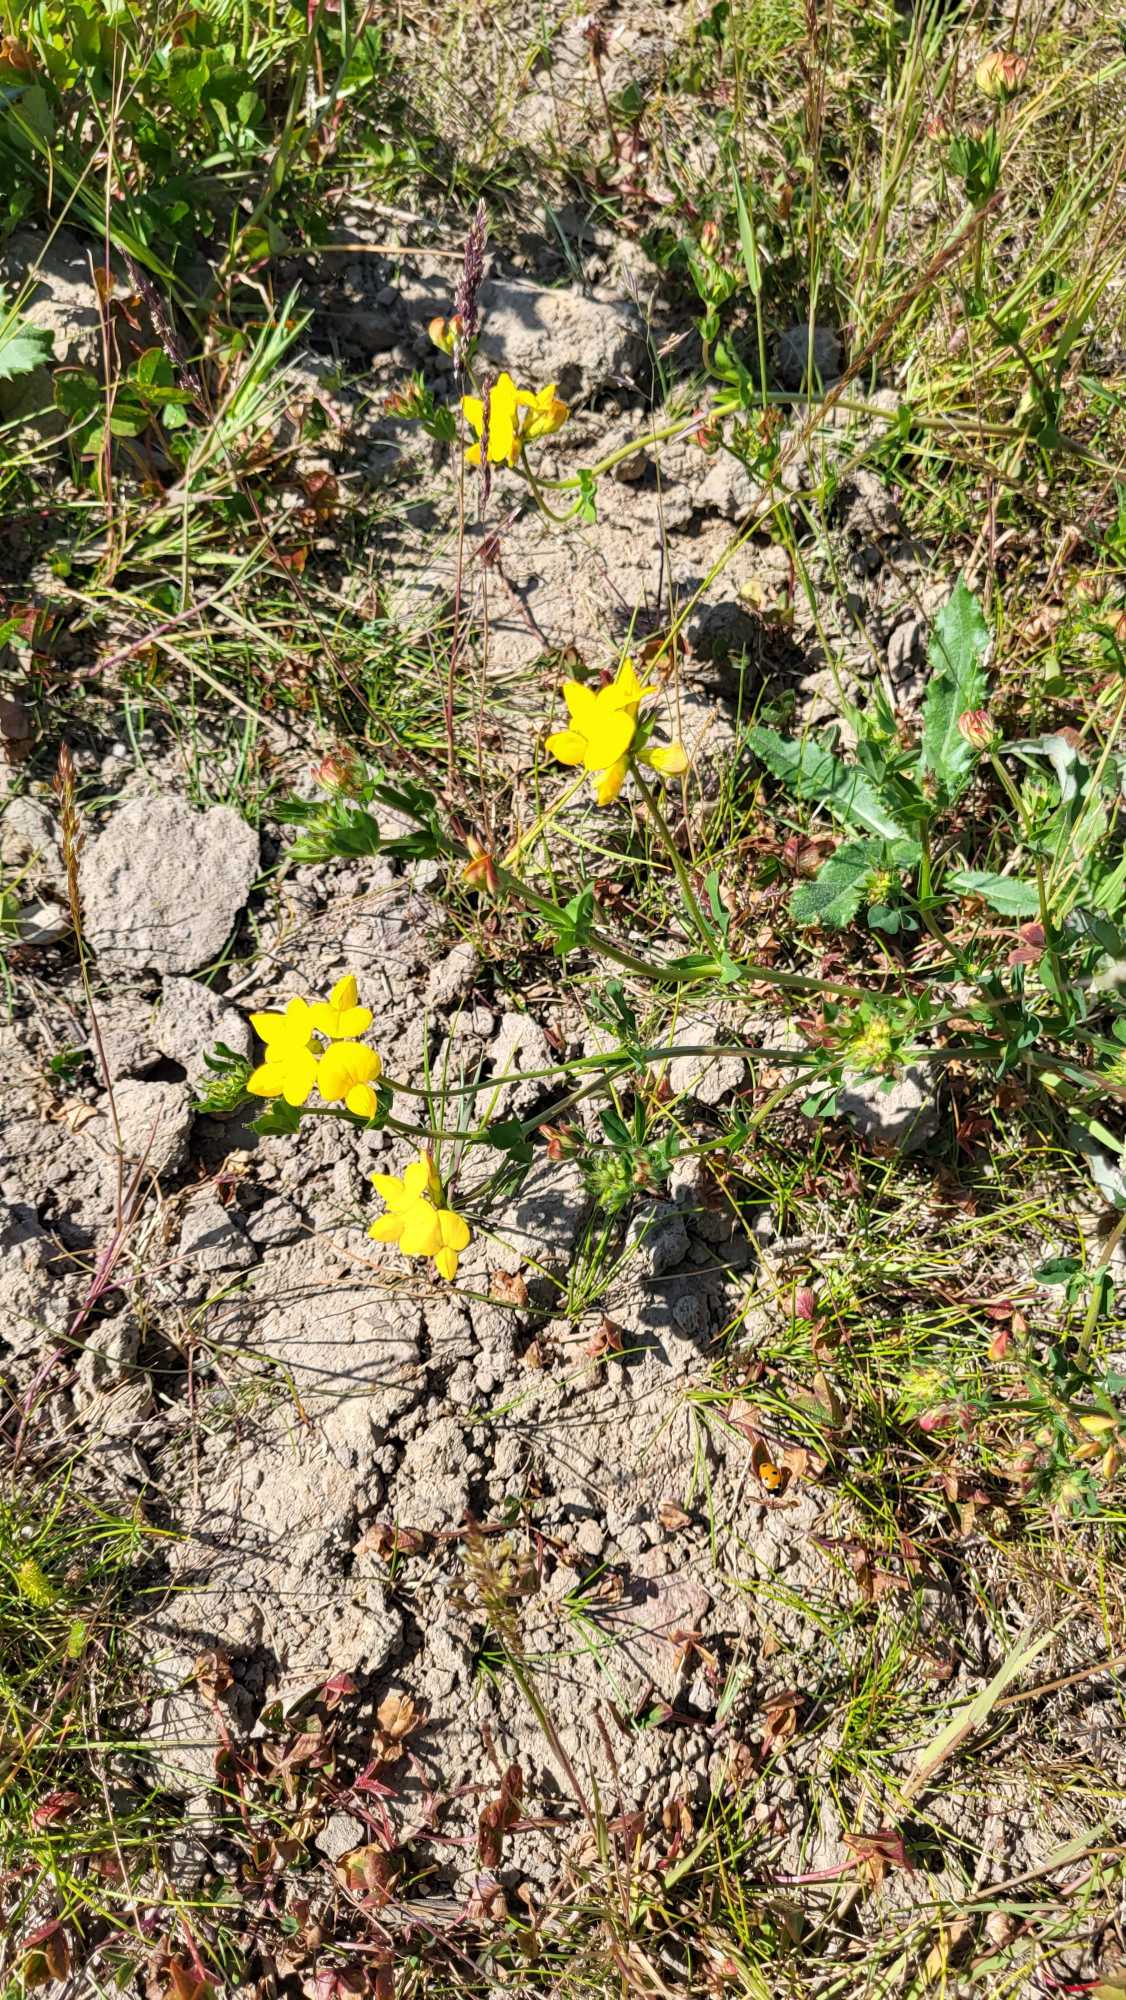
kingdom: Plantae
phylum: Tracheophyta
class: Magnoliopsida
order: Fabales
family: Fabaceae
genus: Lotus
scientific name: Lotus corniculatus
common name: Almindelig kællingetand
